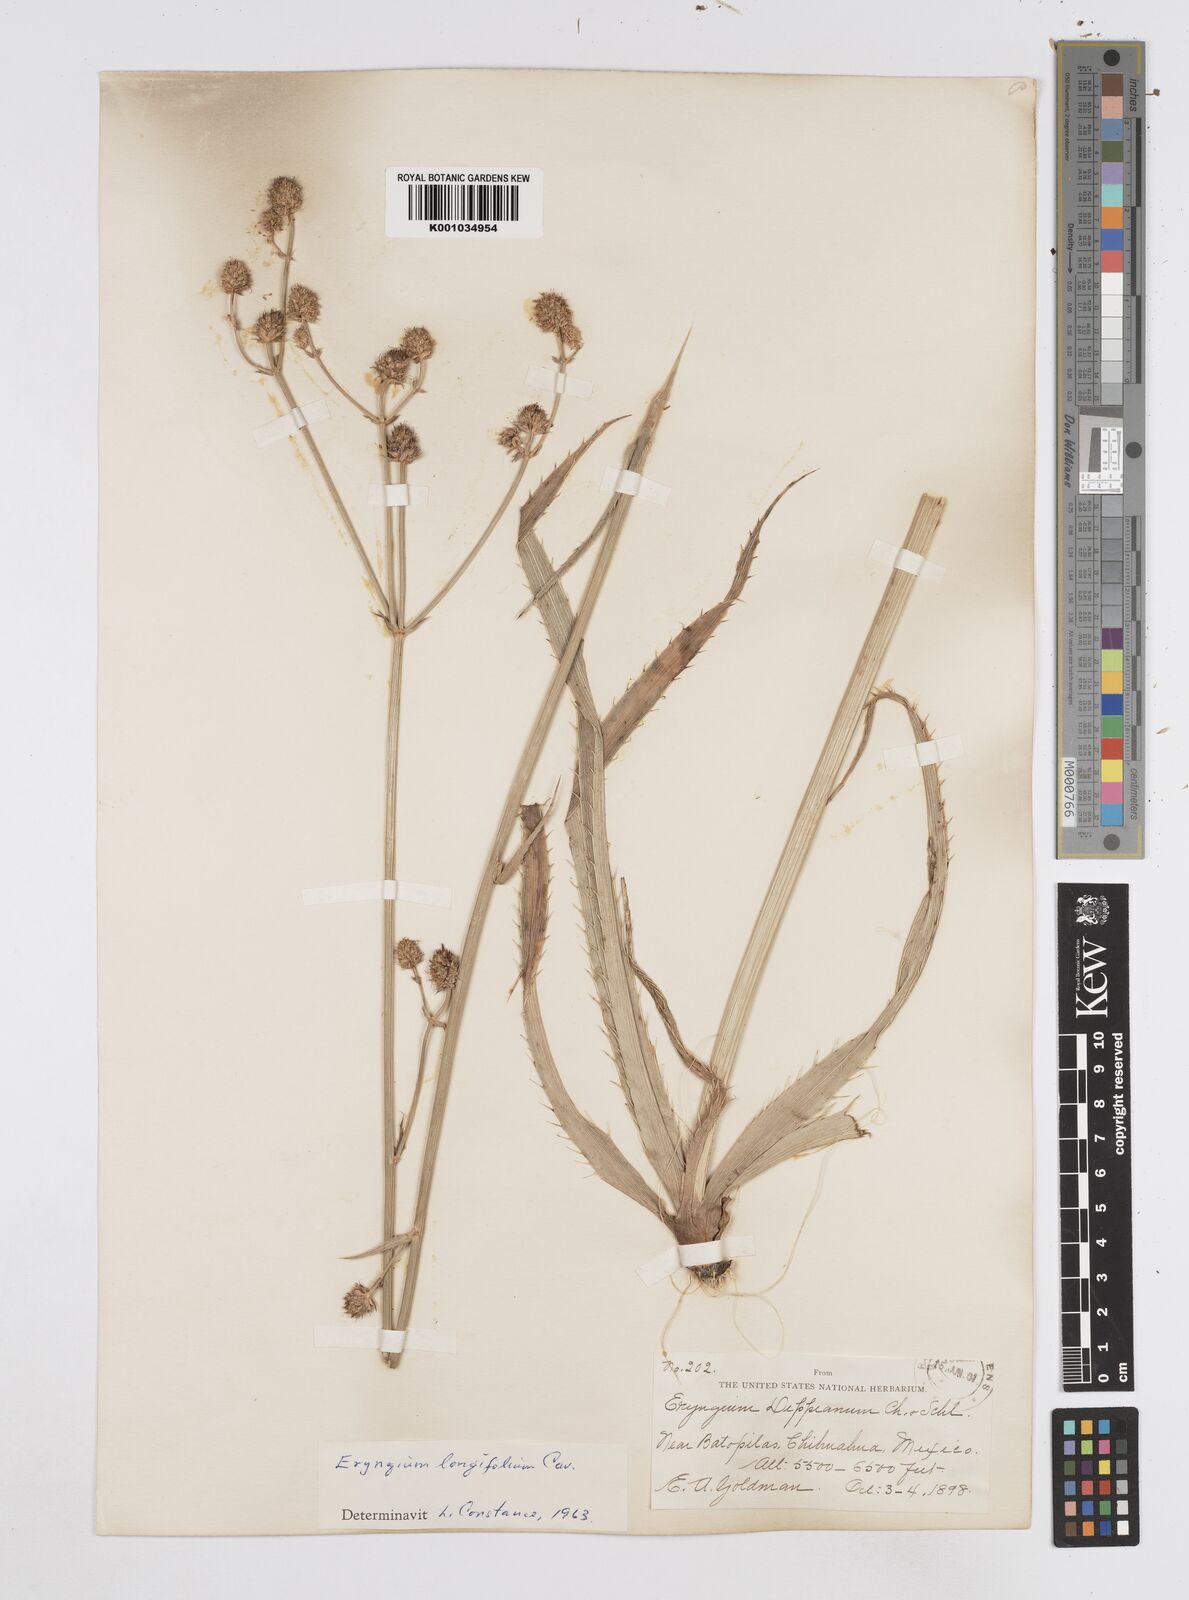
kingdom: Plantae
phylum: Tracheophyta
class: Magnoliopsida
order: Apiales
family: Apiaceae
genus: Eryngium
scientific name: Eryngium longifolium
